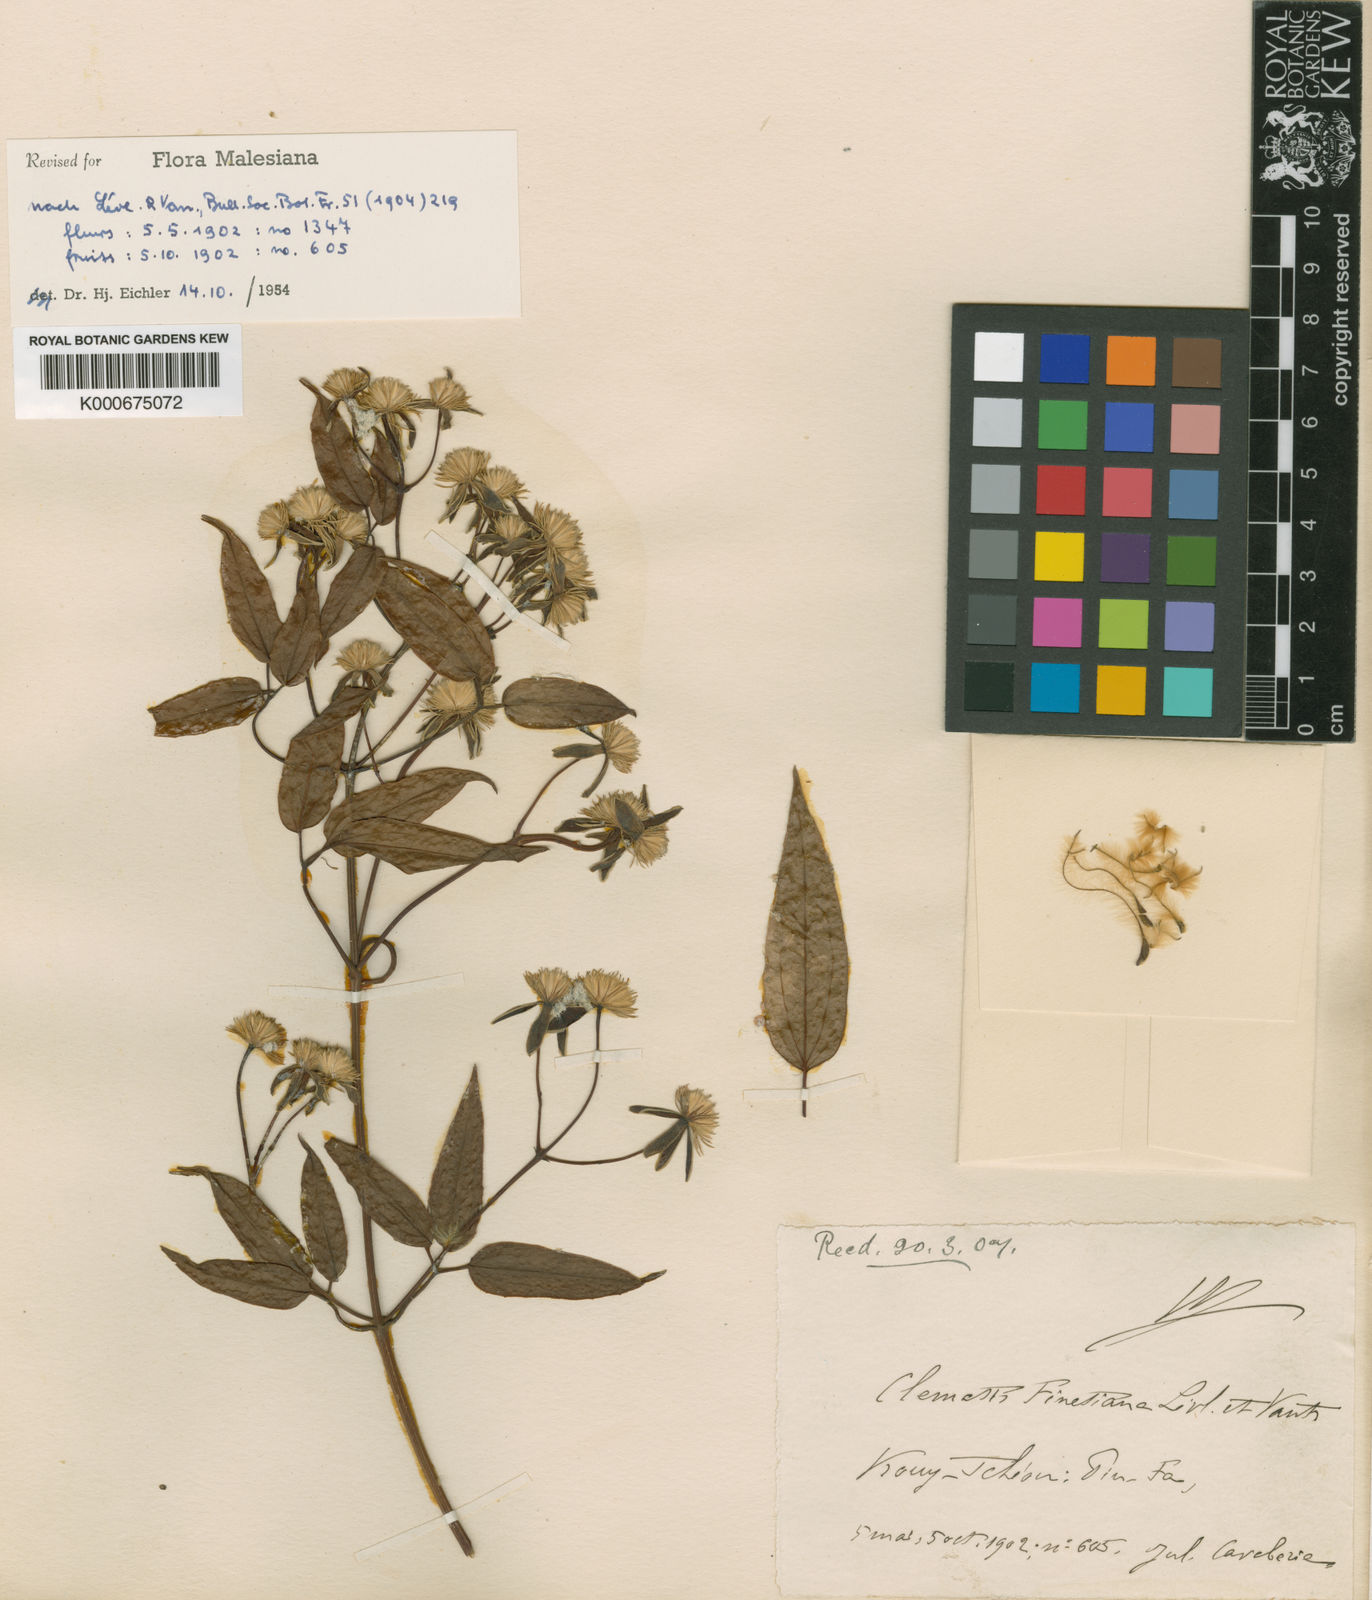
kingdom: Plantae
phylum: Tracheophyta
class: Magnoliopsida
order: Ranunculales
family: Ranunculaceae
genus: Clematis
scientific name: Clematis
